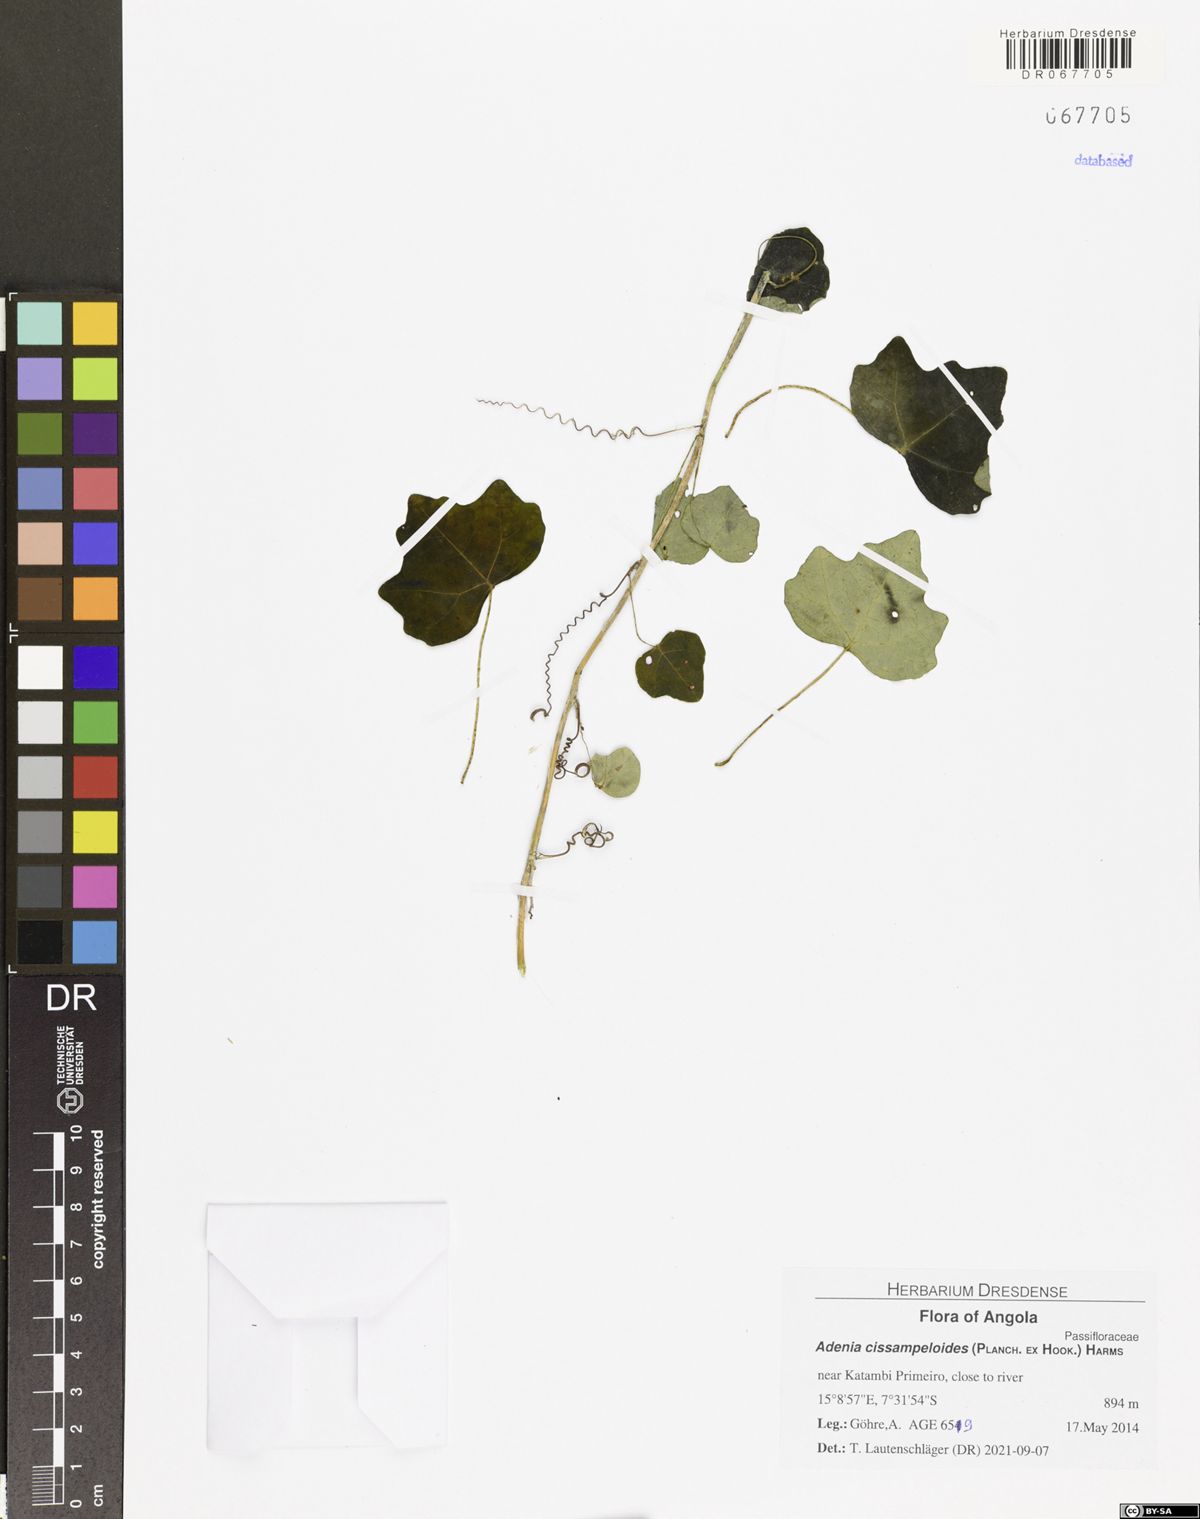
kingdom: Plantae
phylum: Tracheophyta
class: Magnoliopsida
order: Malpighiales
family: Passifloraceae
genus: Adenia
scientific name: Adenia cissampeloides
